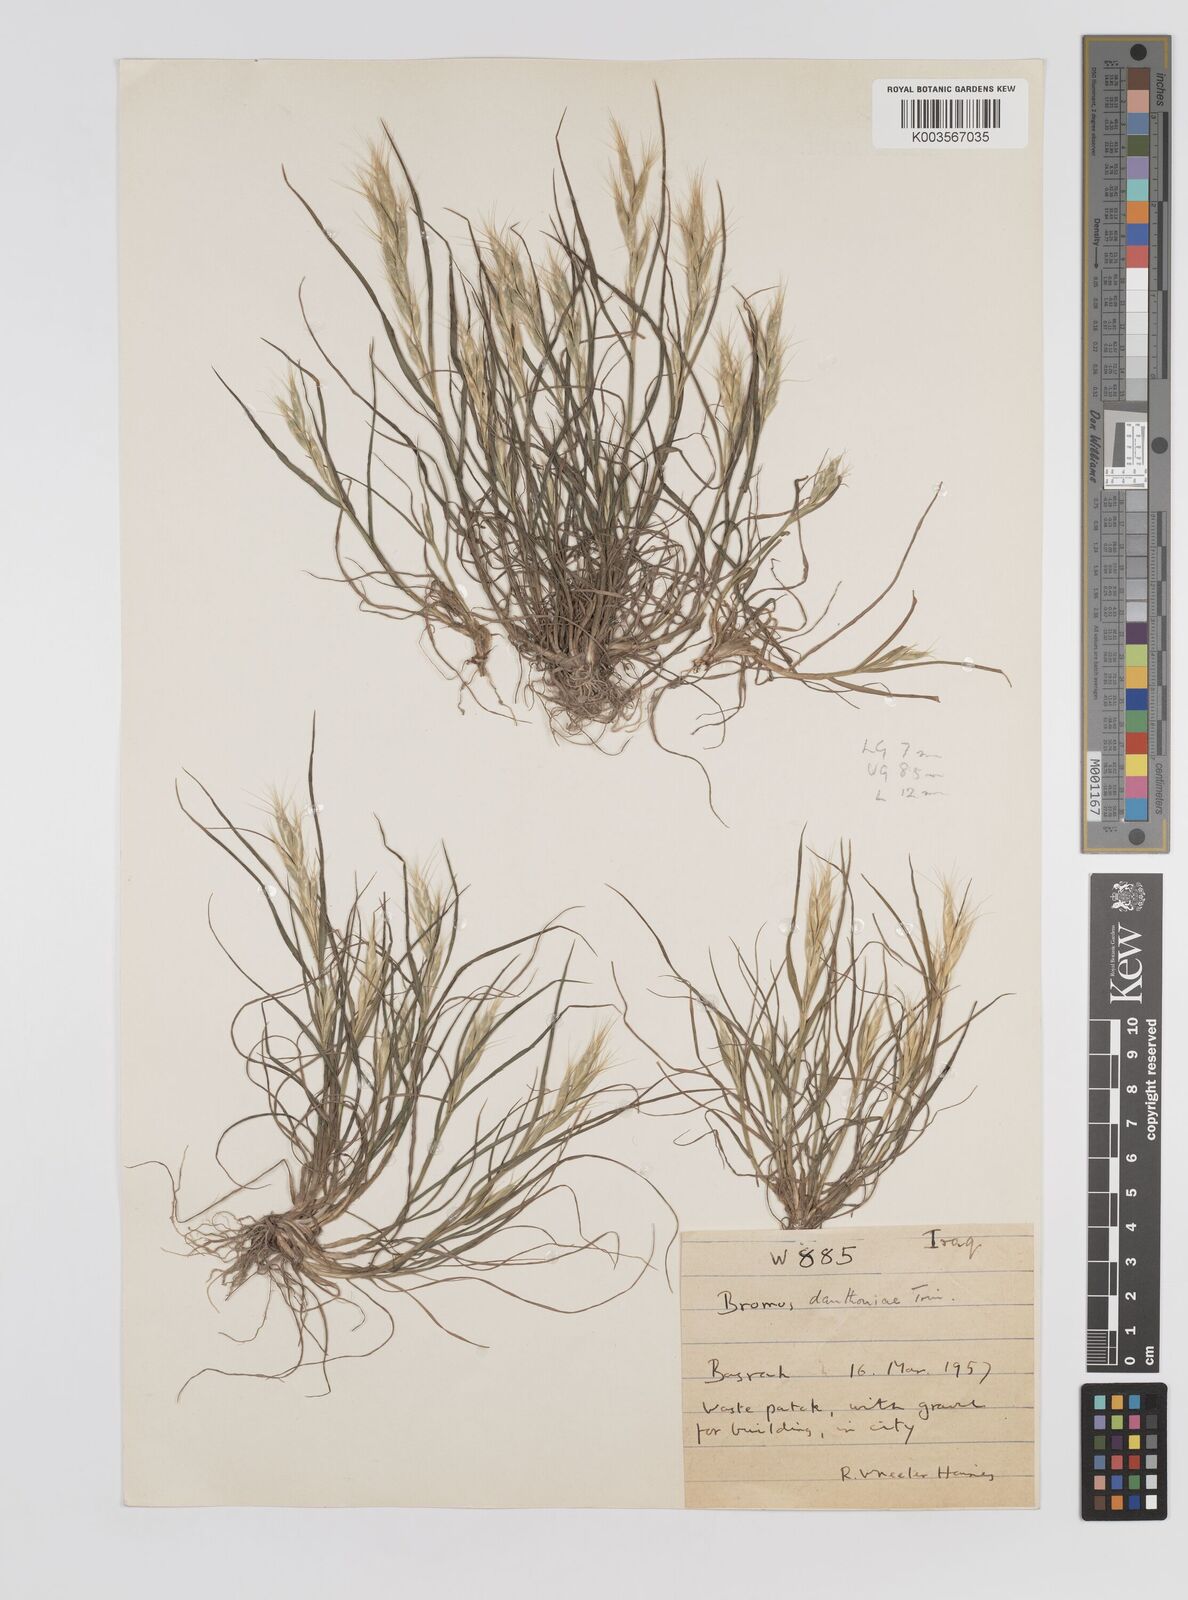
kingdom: Plantae
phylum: Tracheophyta
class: Liliopsida
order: Poales
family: Poaceae
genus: Bromus
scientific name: Bromus danthoniae
